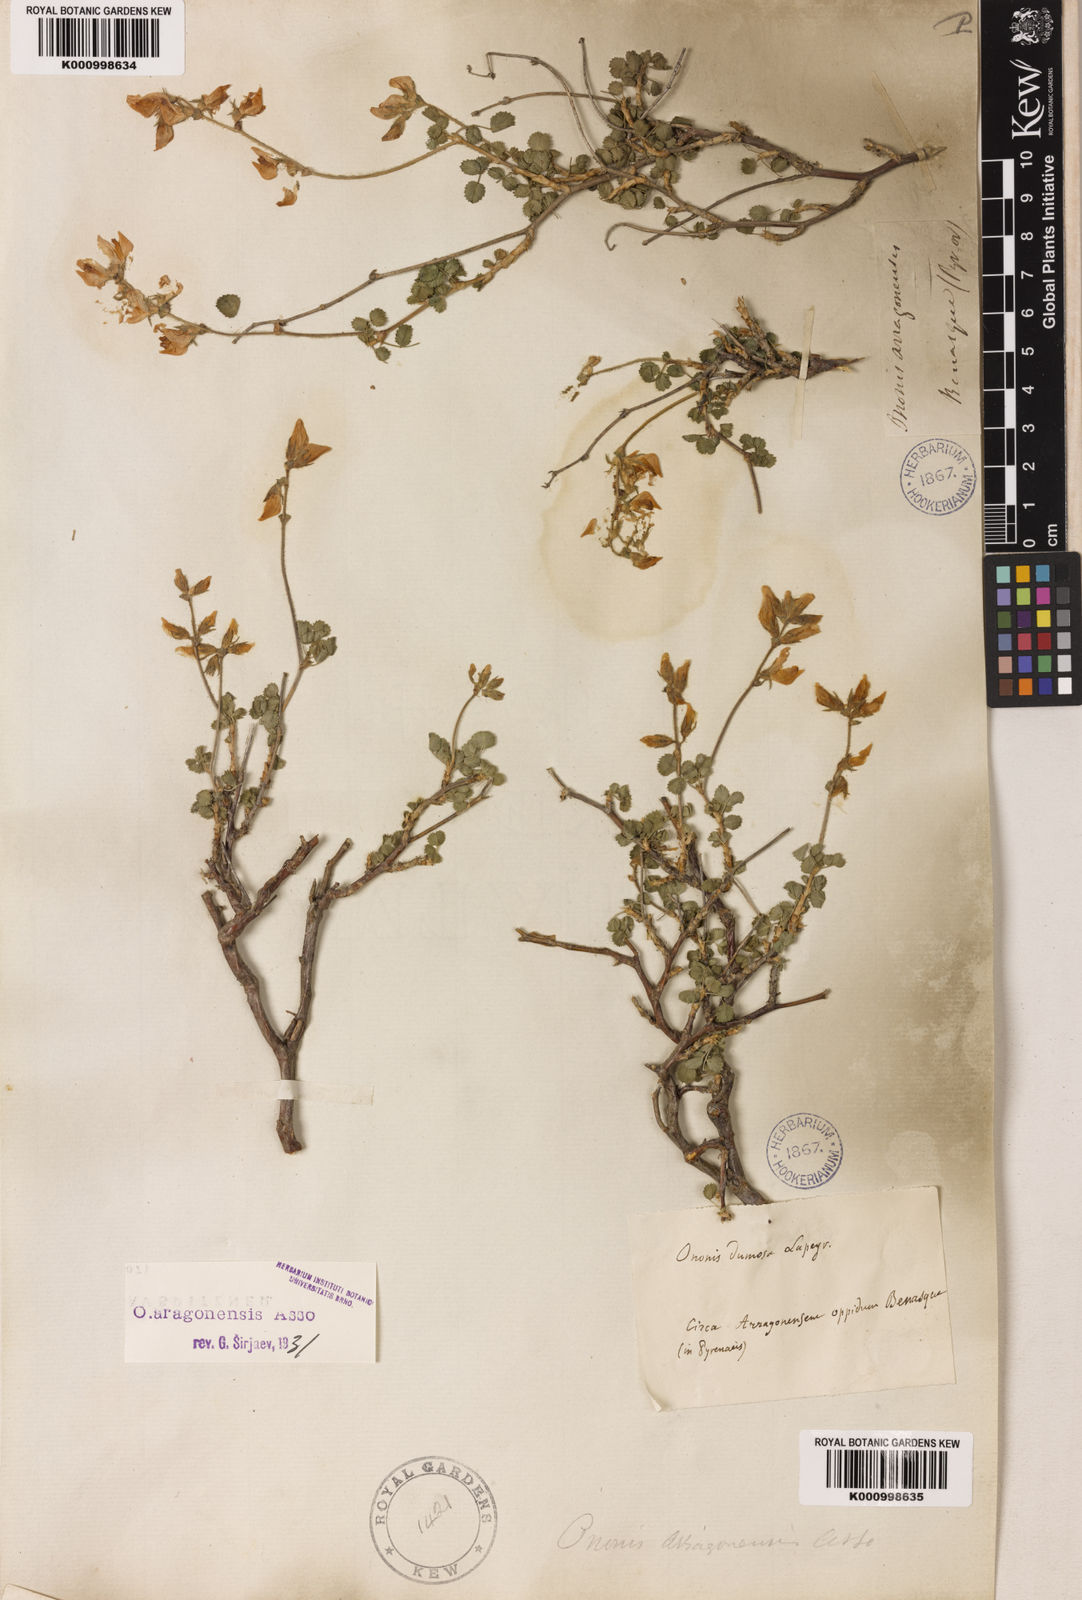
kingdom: Plantae
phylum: Tracheophyta
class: Magnoliopsida
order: Fabales
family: Fabaceae
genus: Ononis
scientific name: Ononis aragonensis
